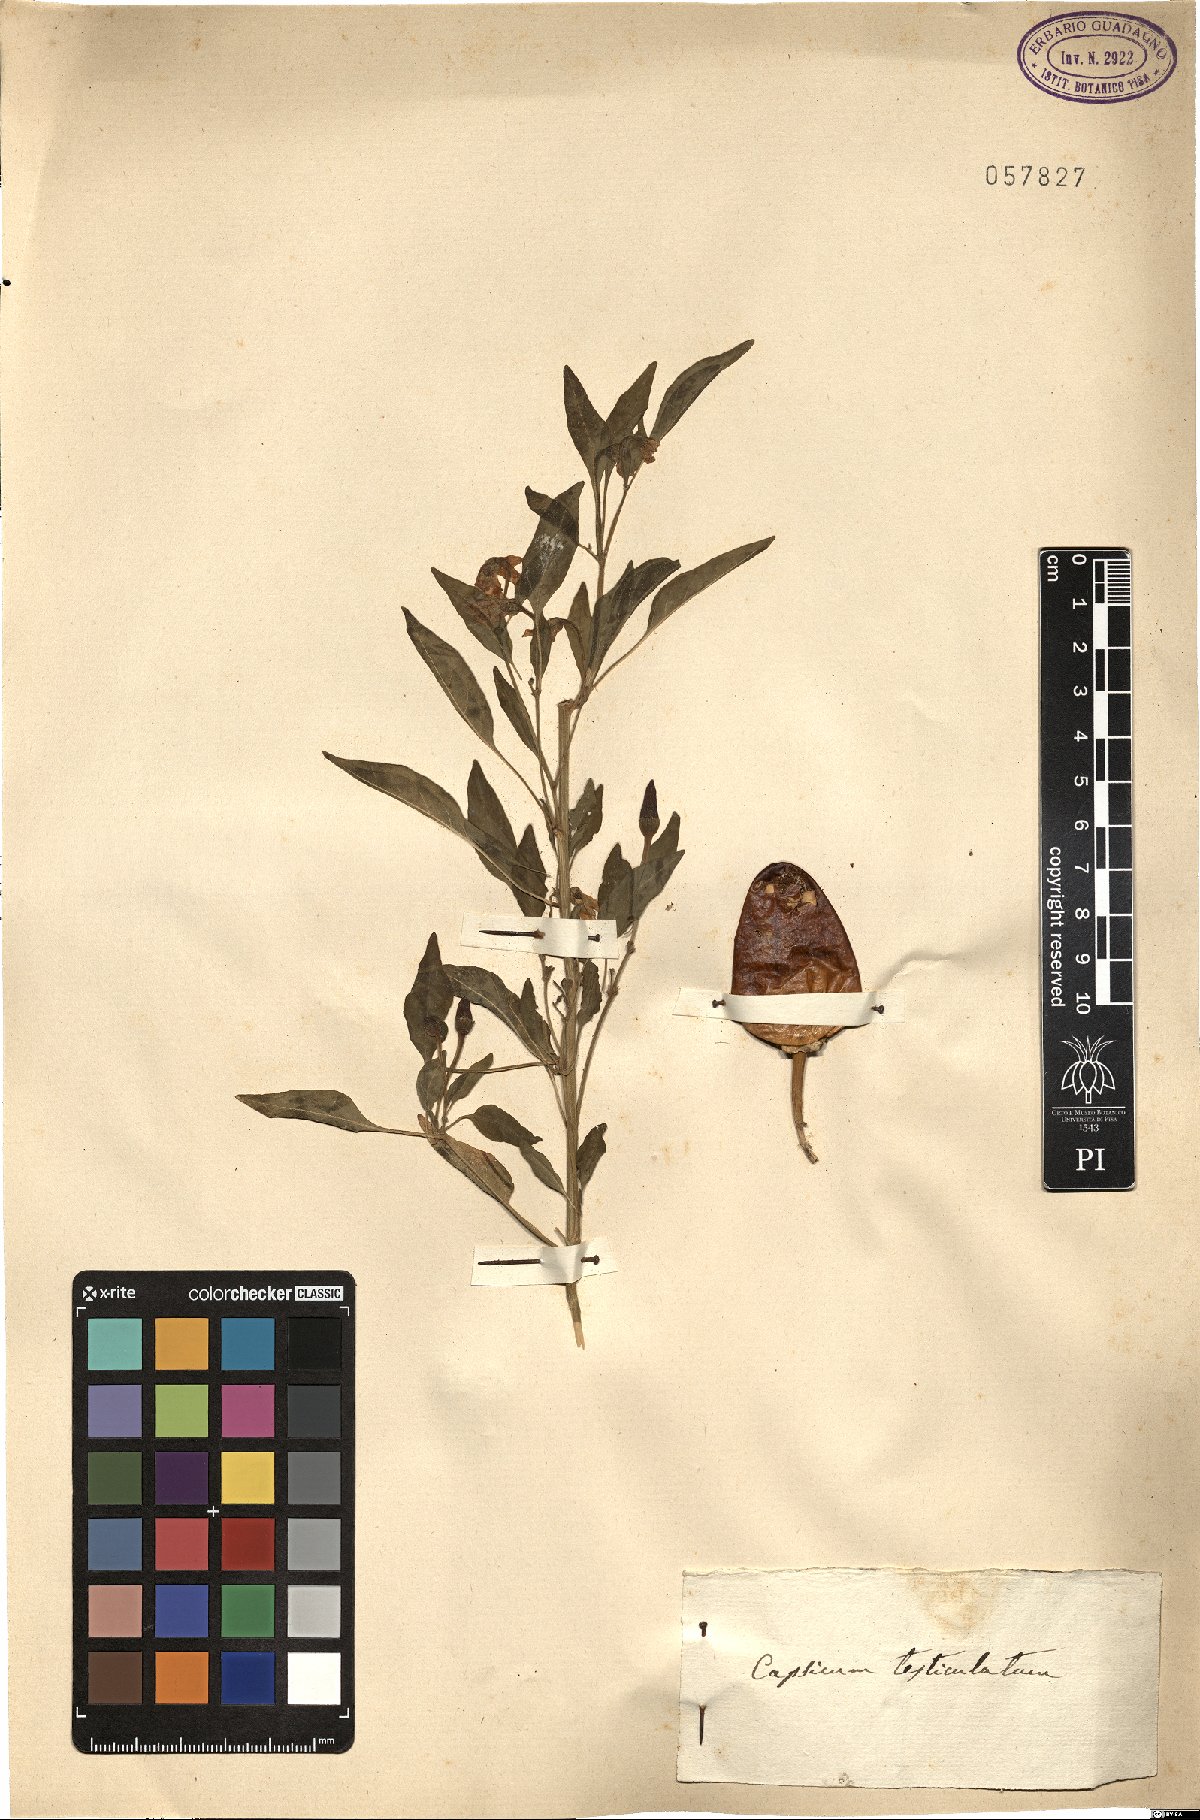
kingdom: Plantae
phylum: Tracheophyta
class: Magnoliopsida
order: Solanales
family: Solanaceae
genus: Capsicum
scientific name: Capsicum annuum
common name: Sweet pepper
